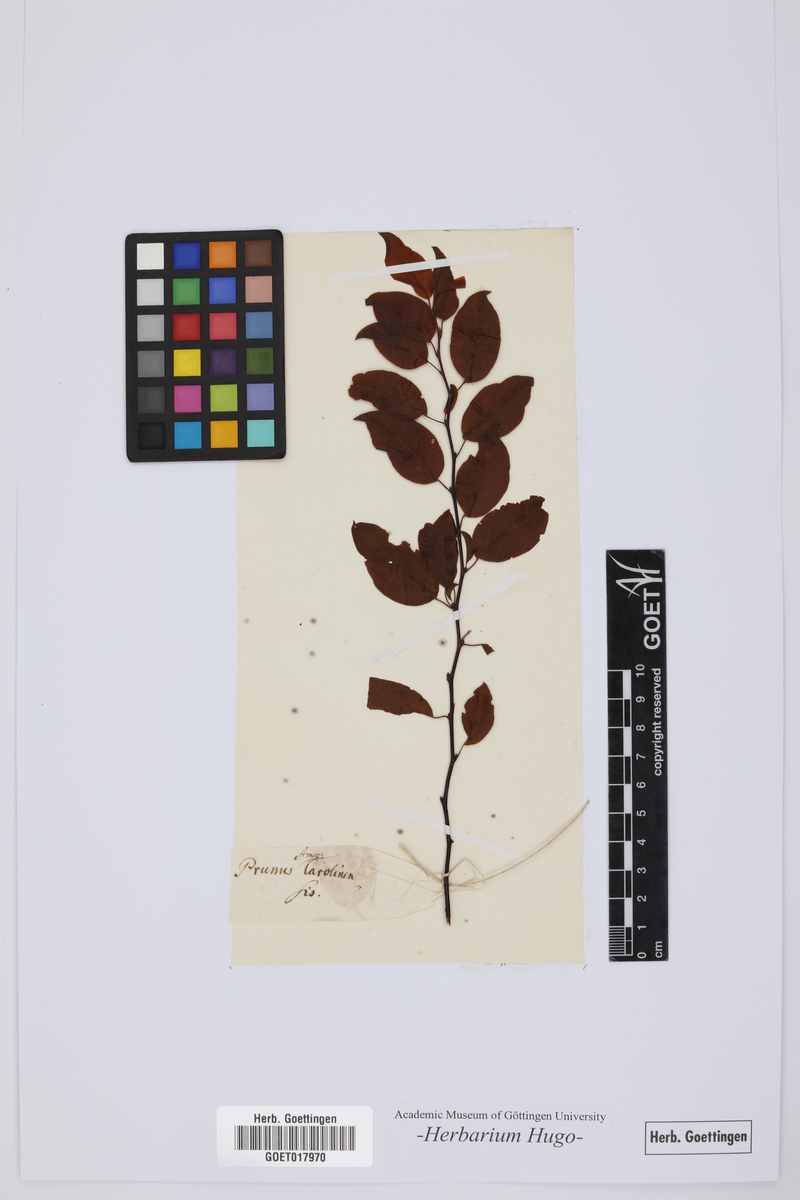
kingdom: Plantae
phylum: Tracheophyta
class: Magnoliopsida
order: Rosales
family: Rosaceae
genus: Prunus
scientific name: Prunus
